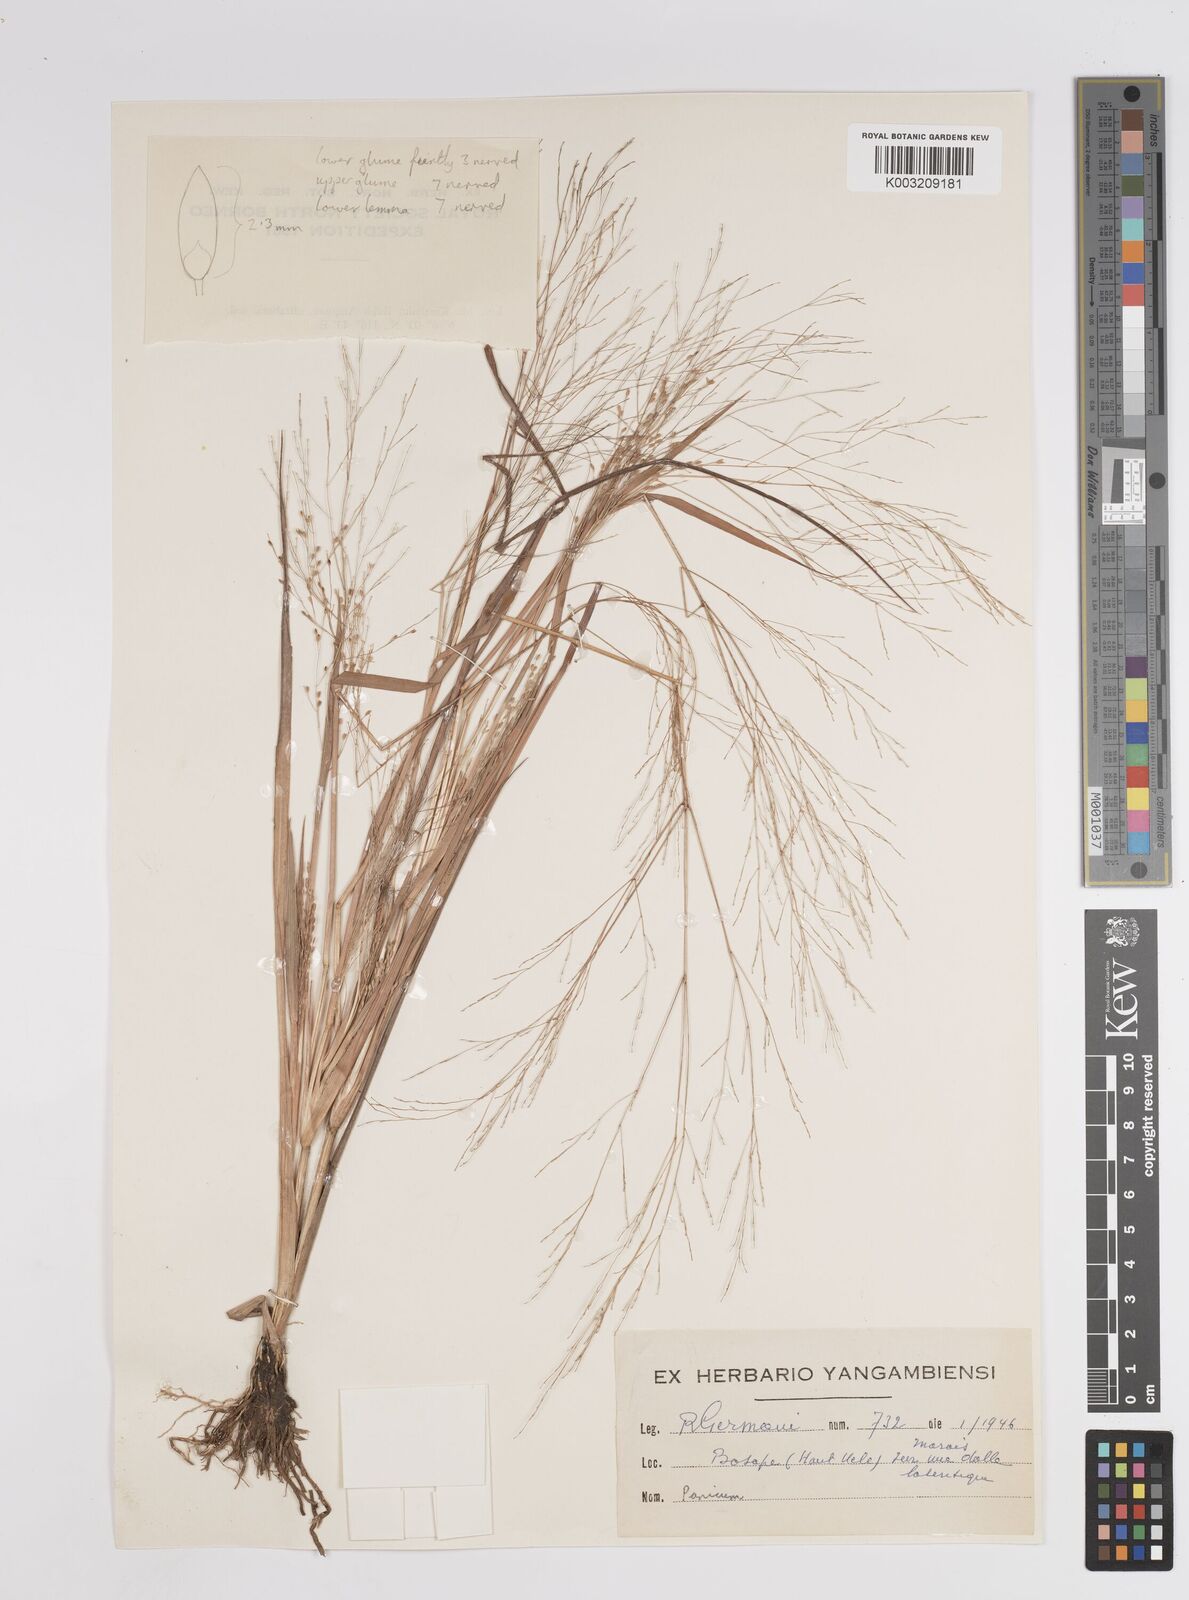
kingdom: Plantae
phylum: Tracheophyta
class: Liliopsida
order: Poales
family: Poaceae
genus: Panicum
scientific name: Panicum
